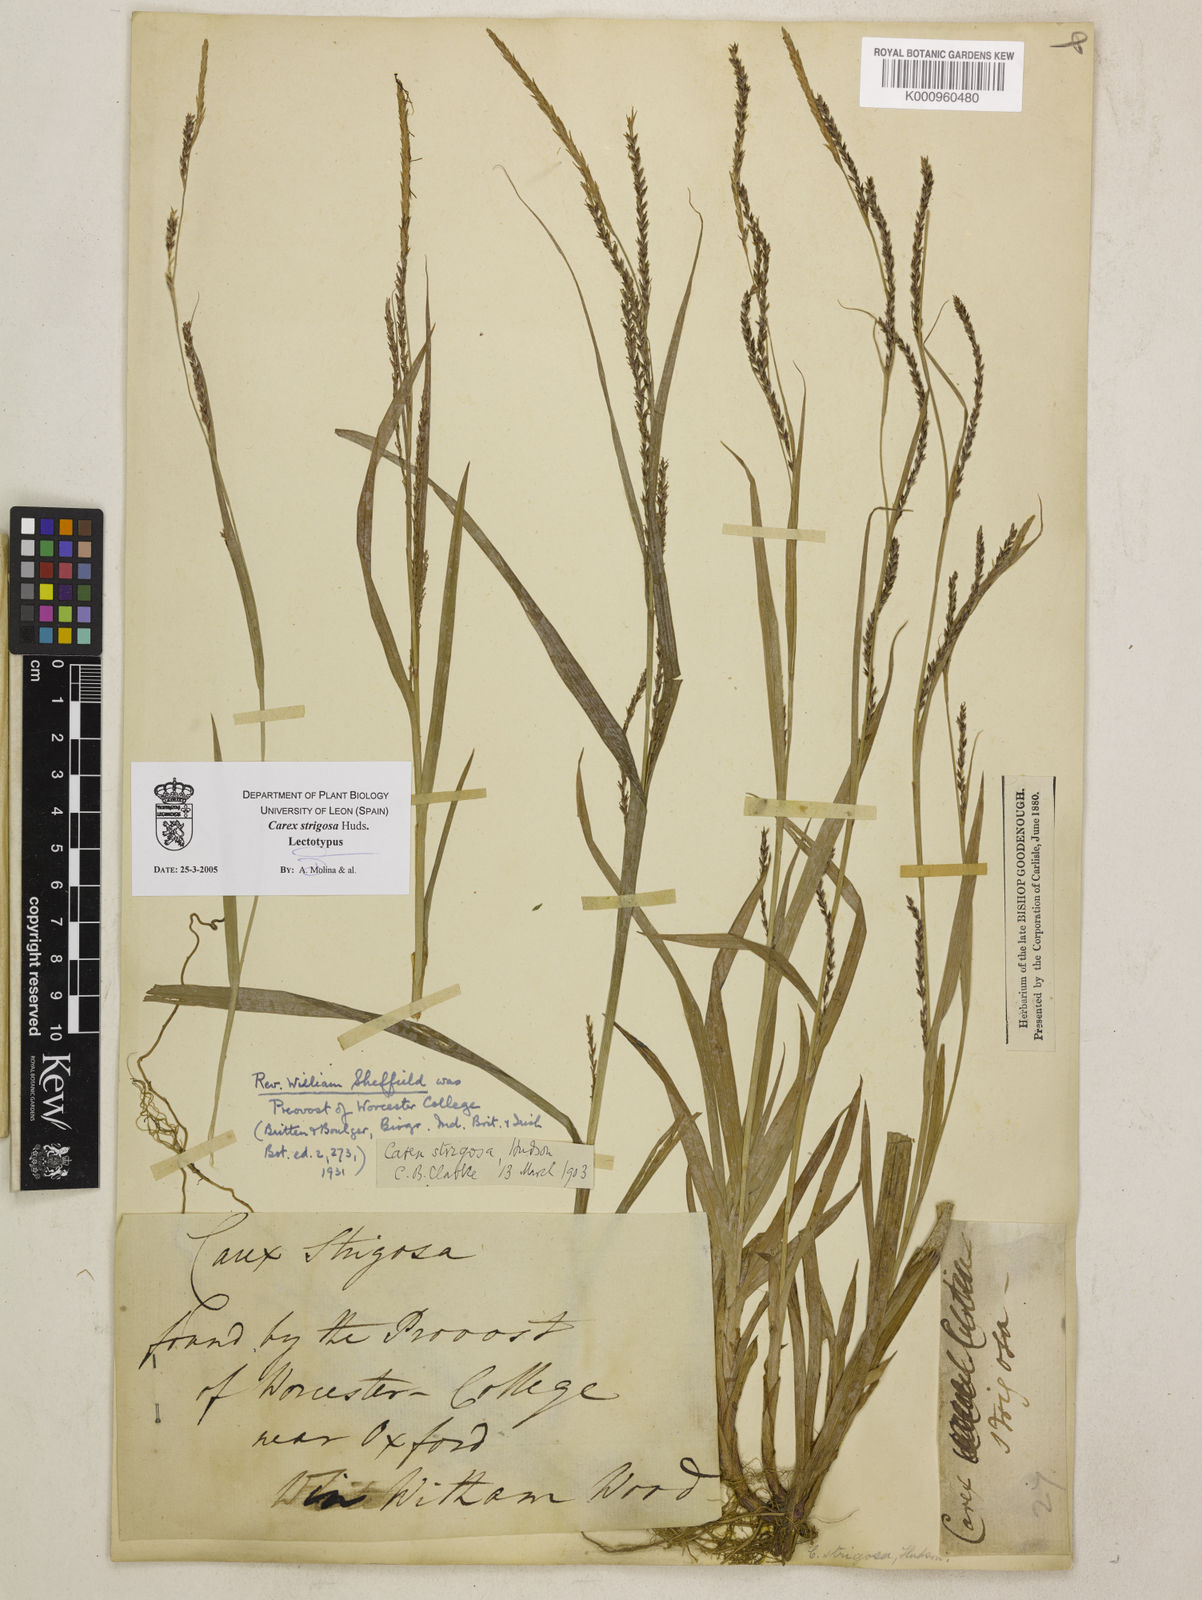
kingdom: Plantae
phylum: Tracheophyta
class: Liliopsida
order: Poales
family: Cyperaceae
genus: Carex
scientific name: Carex strigosa
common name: Thin-spiked wood-sedge
